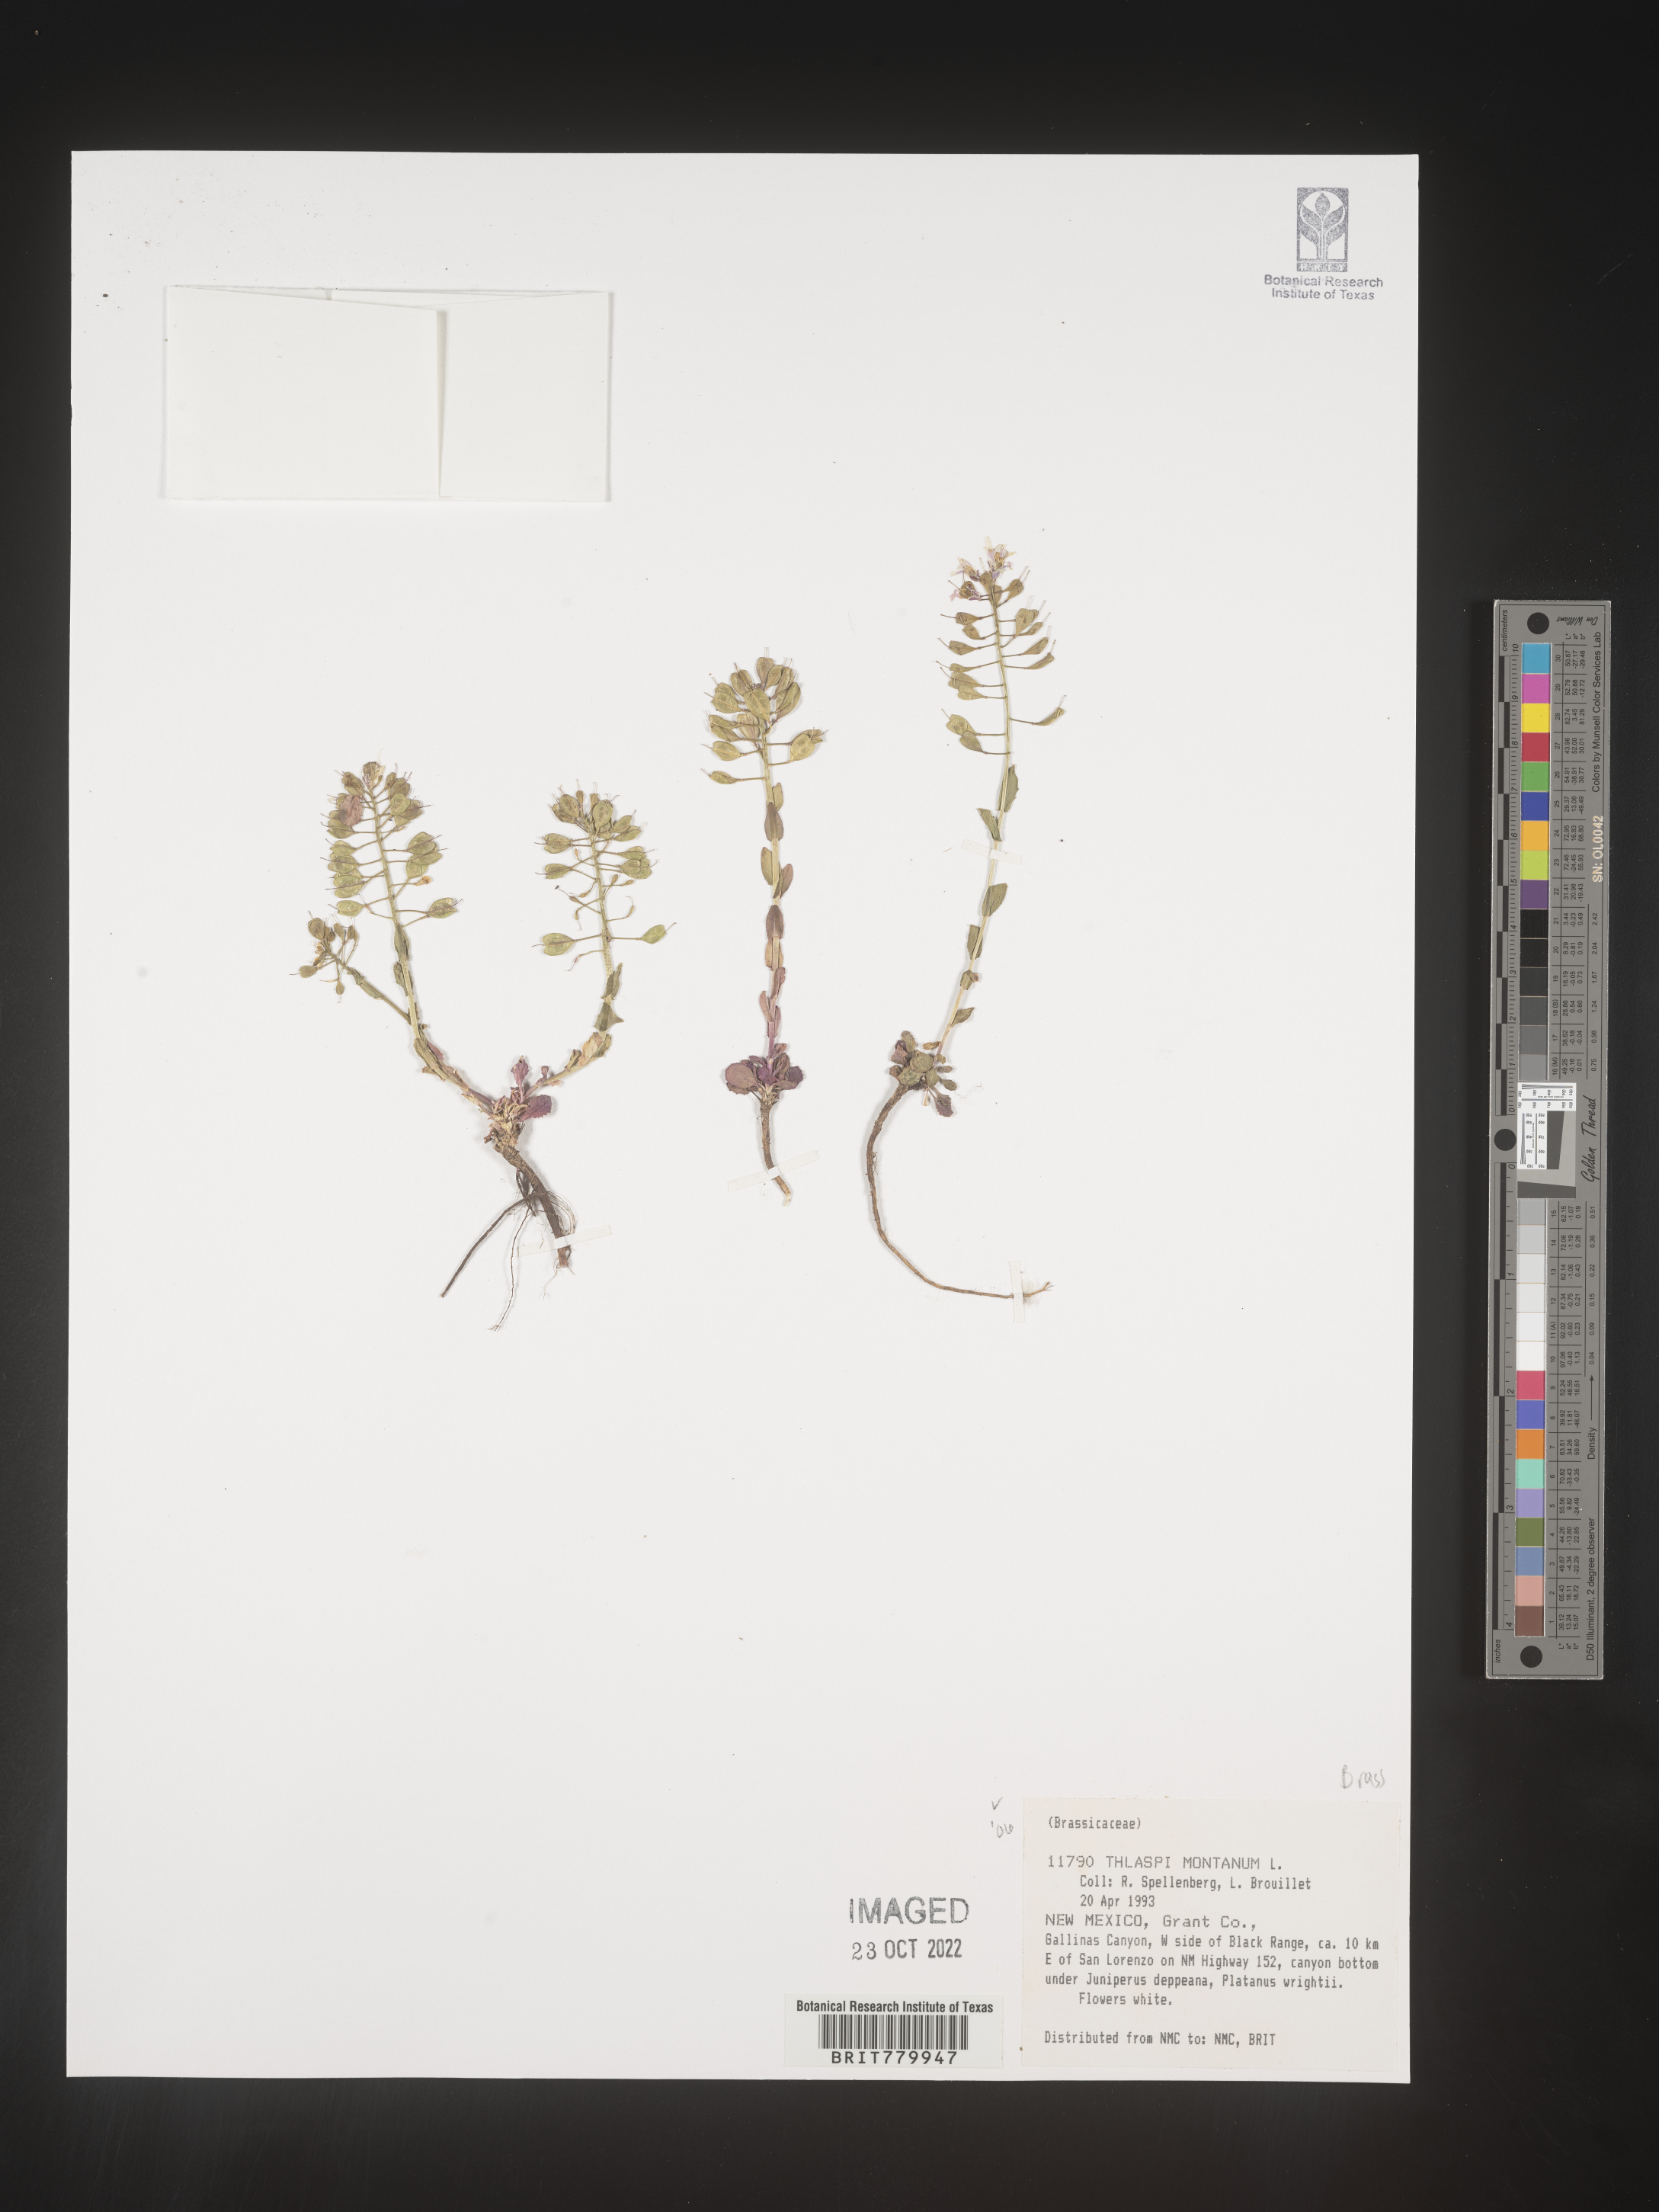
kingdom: Plantae
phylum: Tracheophyta
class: Magnoliopsida
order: Brassicales
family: Brassicaceae
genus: Thlaspi
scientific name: Thlaspi
